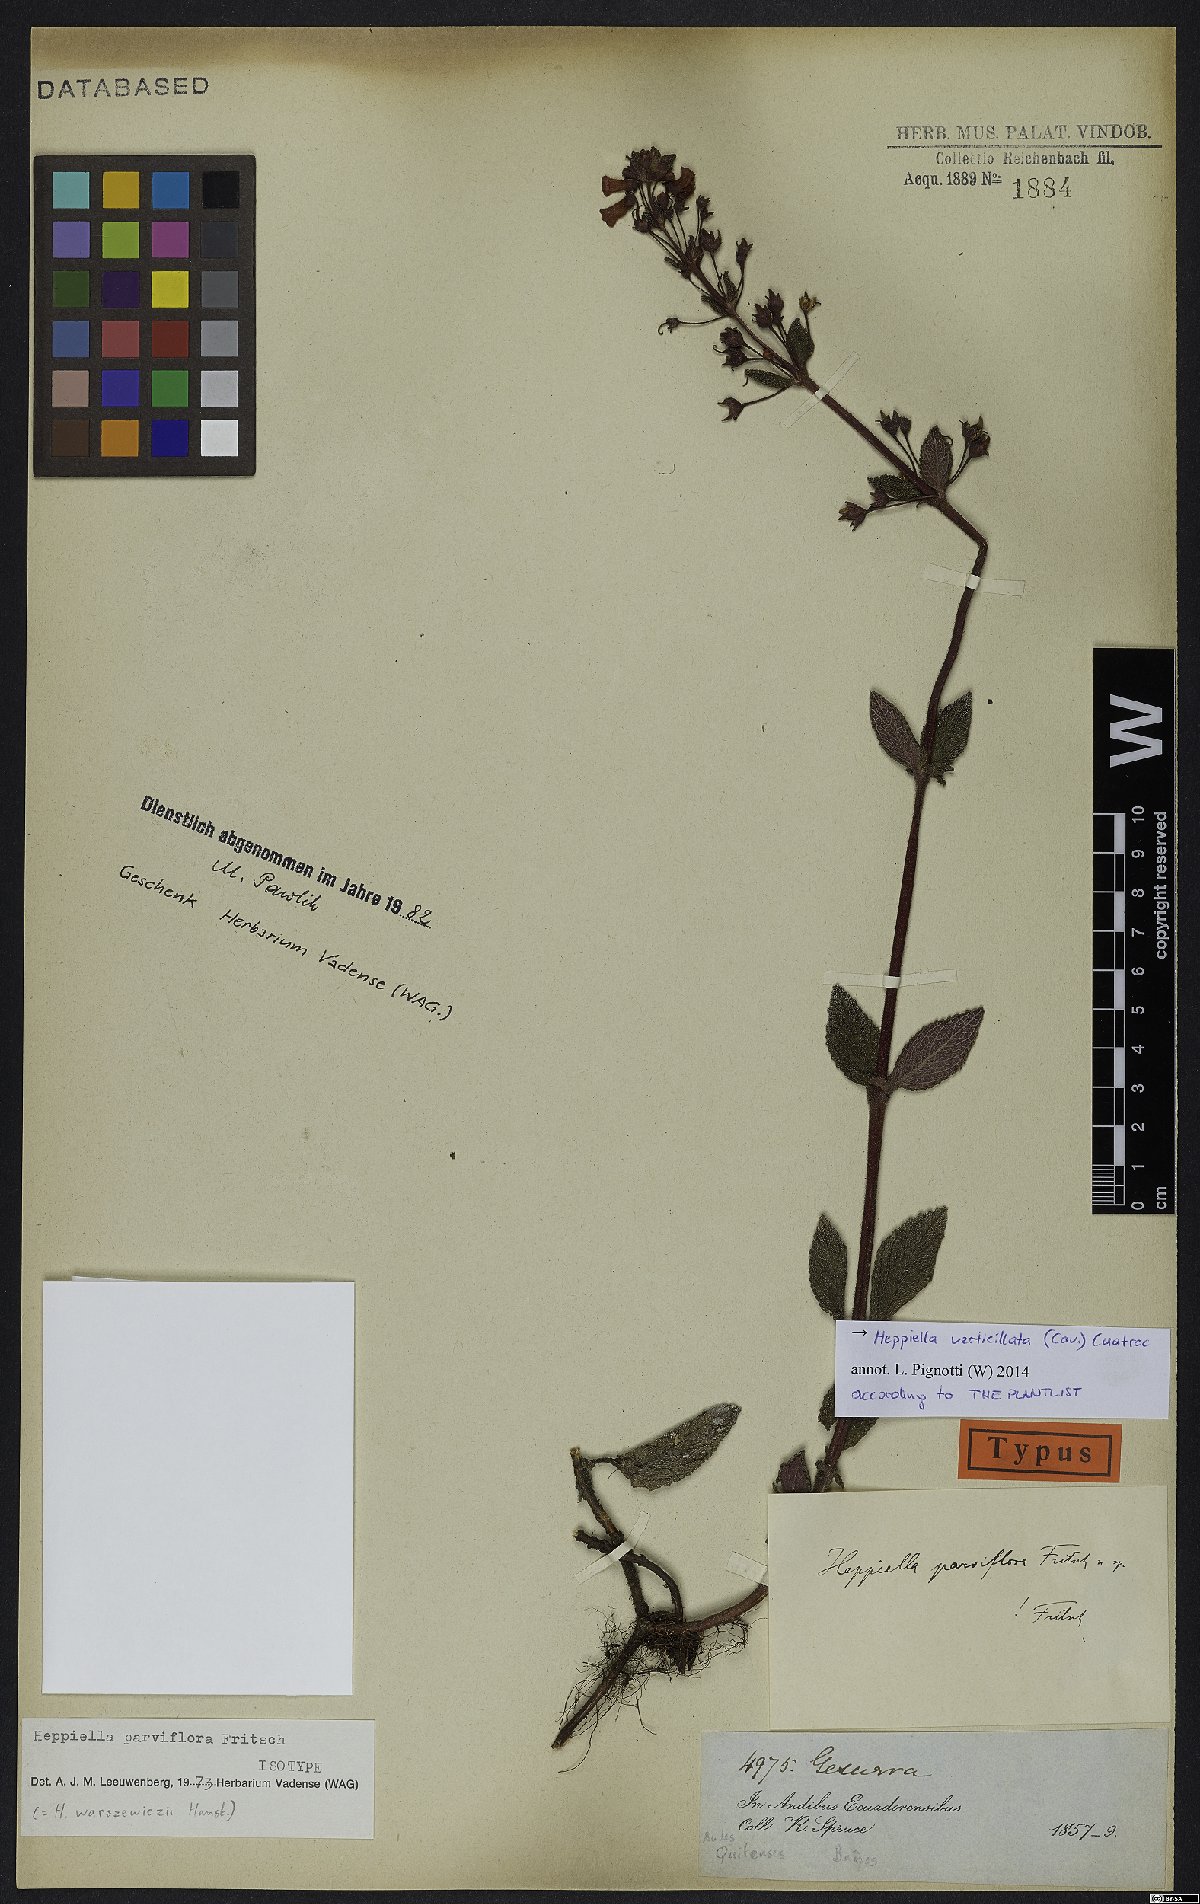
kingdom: Plantae
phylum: Tracheophyta
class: Magnoliopsida
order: Lamiales
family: Gesneriaceae
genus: Heppiella
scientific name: Heppiella verticillata
